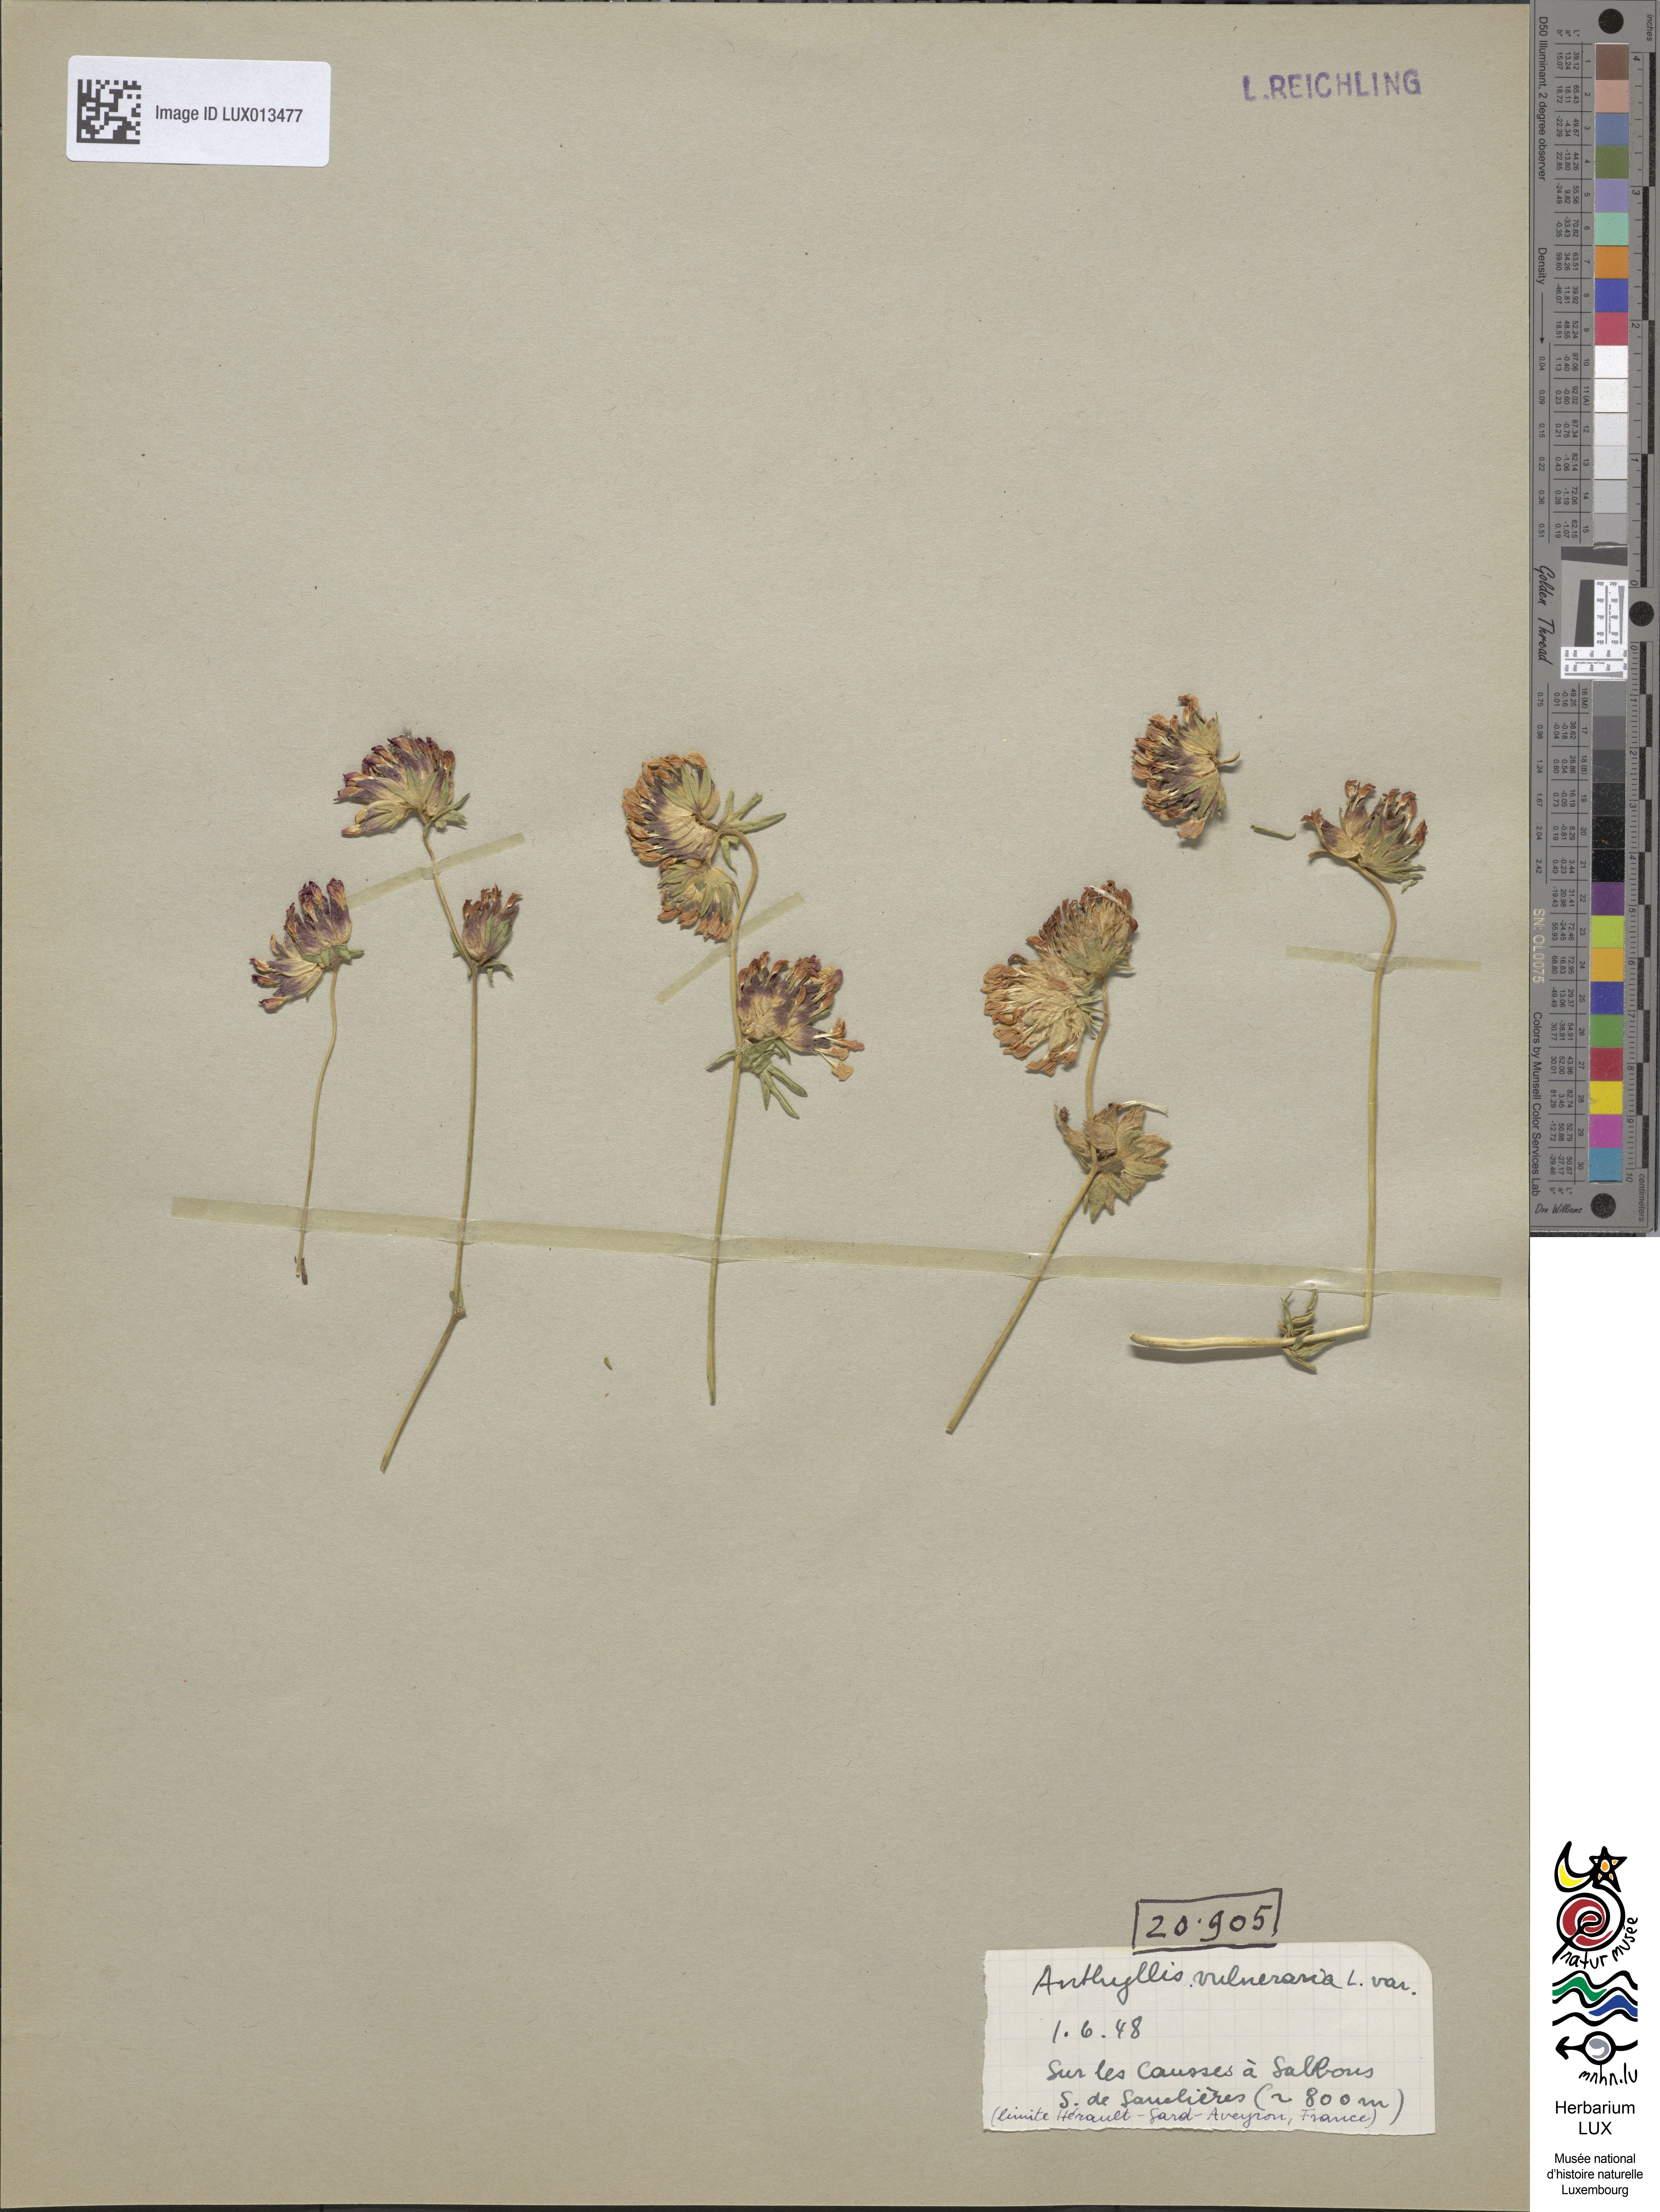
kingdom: Plantae
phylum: Tracheophyta
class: Magnoliopsida
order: Fabales
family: Fabaceae
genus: Anthyllis
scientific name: Anthyllis vulneraria
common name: Kidney vetch
